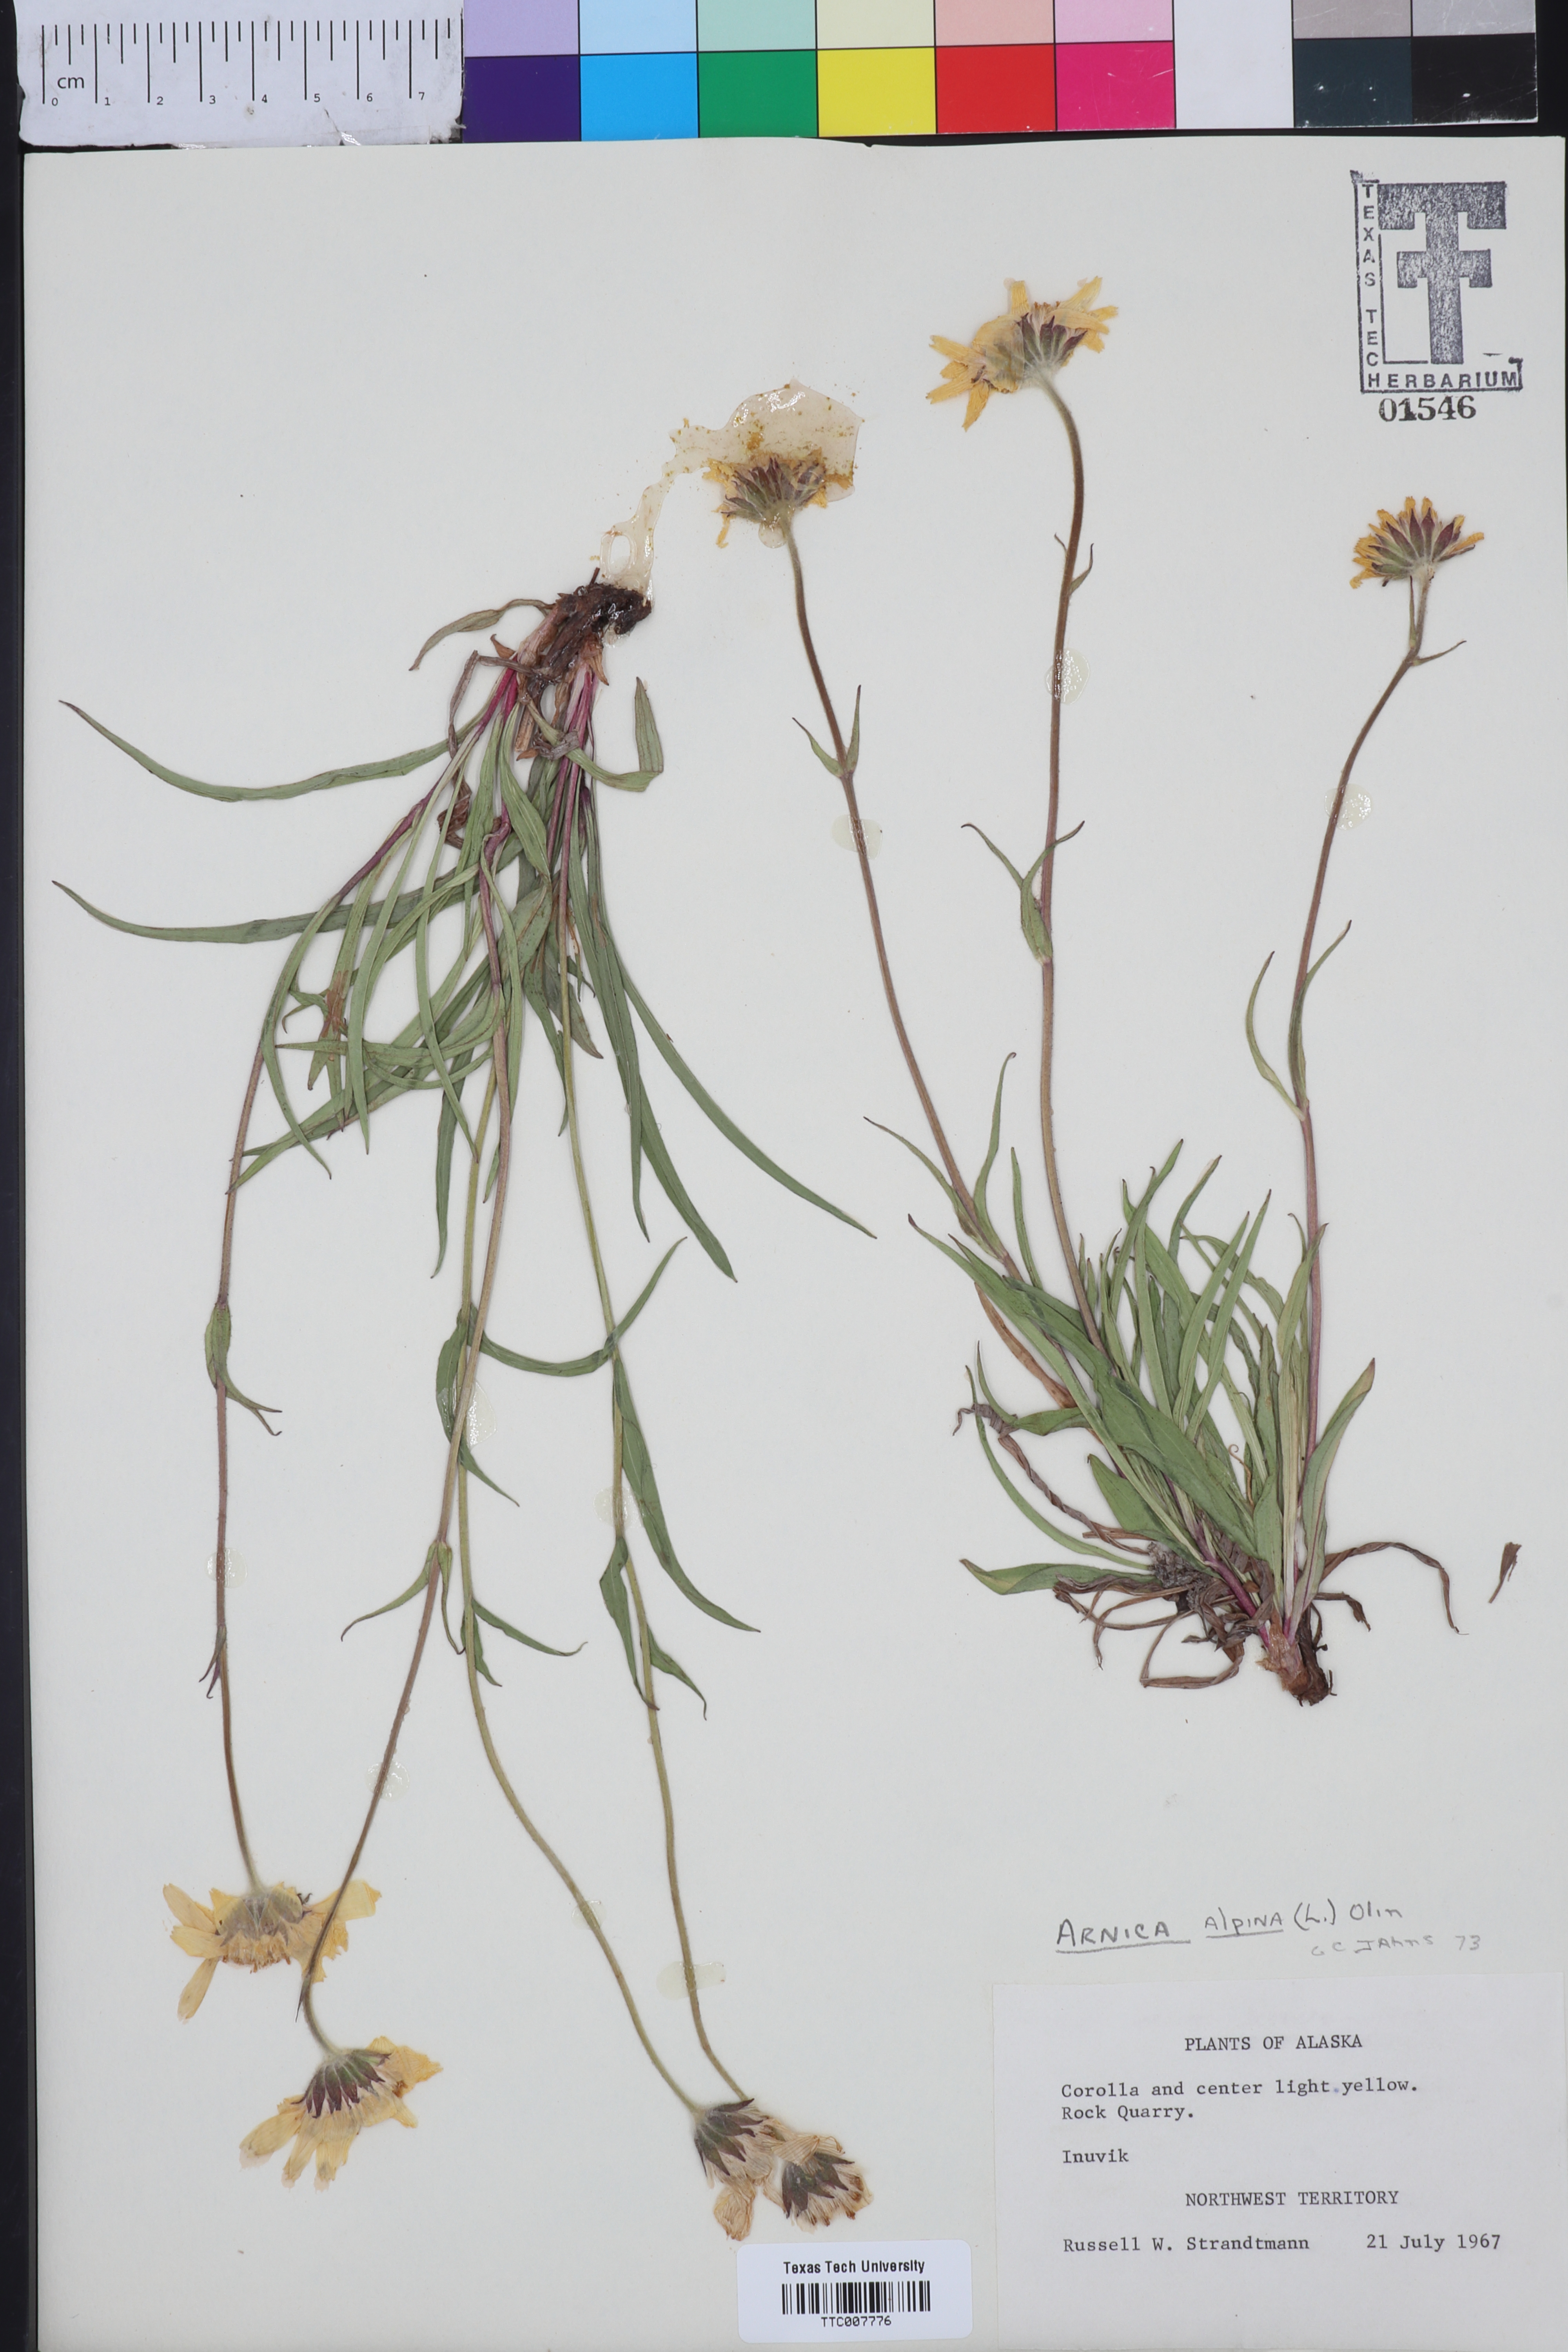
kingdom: Plantae
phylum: Tracheophyta
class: Magnoliopsida
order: Asterales
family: Asteraceae
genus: Arnica
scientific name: Arnica angustifolia
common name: Arctic arnica
